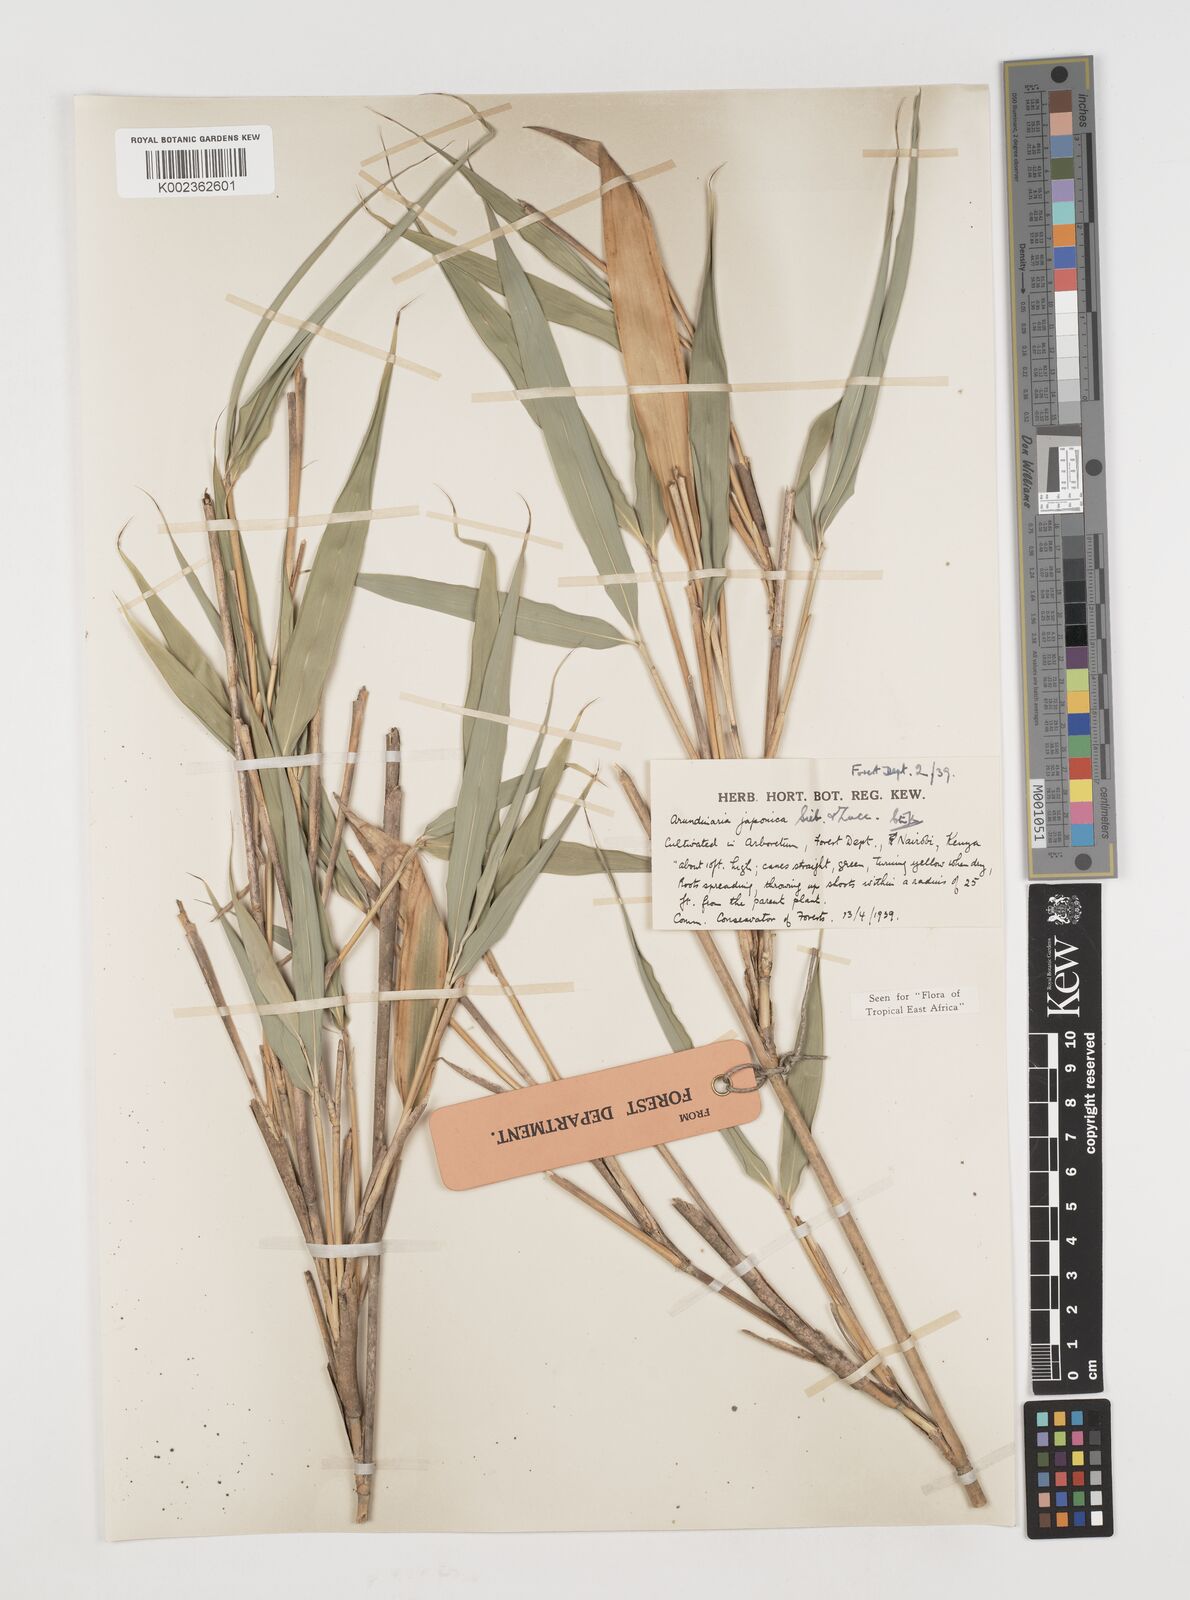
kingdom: Plantae
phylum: Tracheophyta
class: Liliopsida
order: Poales
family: Poaceae
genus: Pseudosasa
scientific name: Pseudosasa japonica
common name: Arrow bamboo
